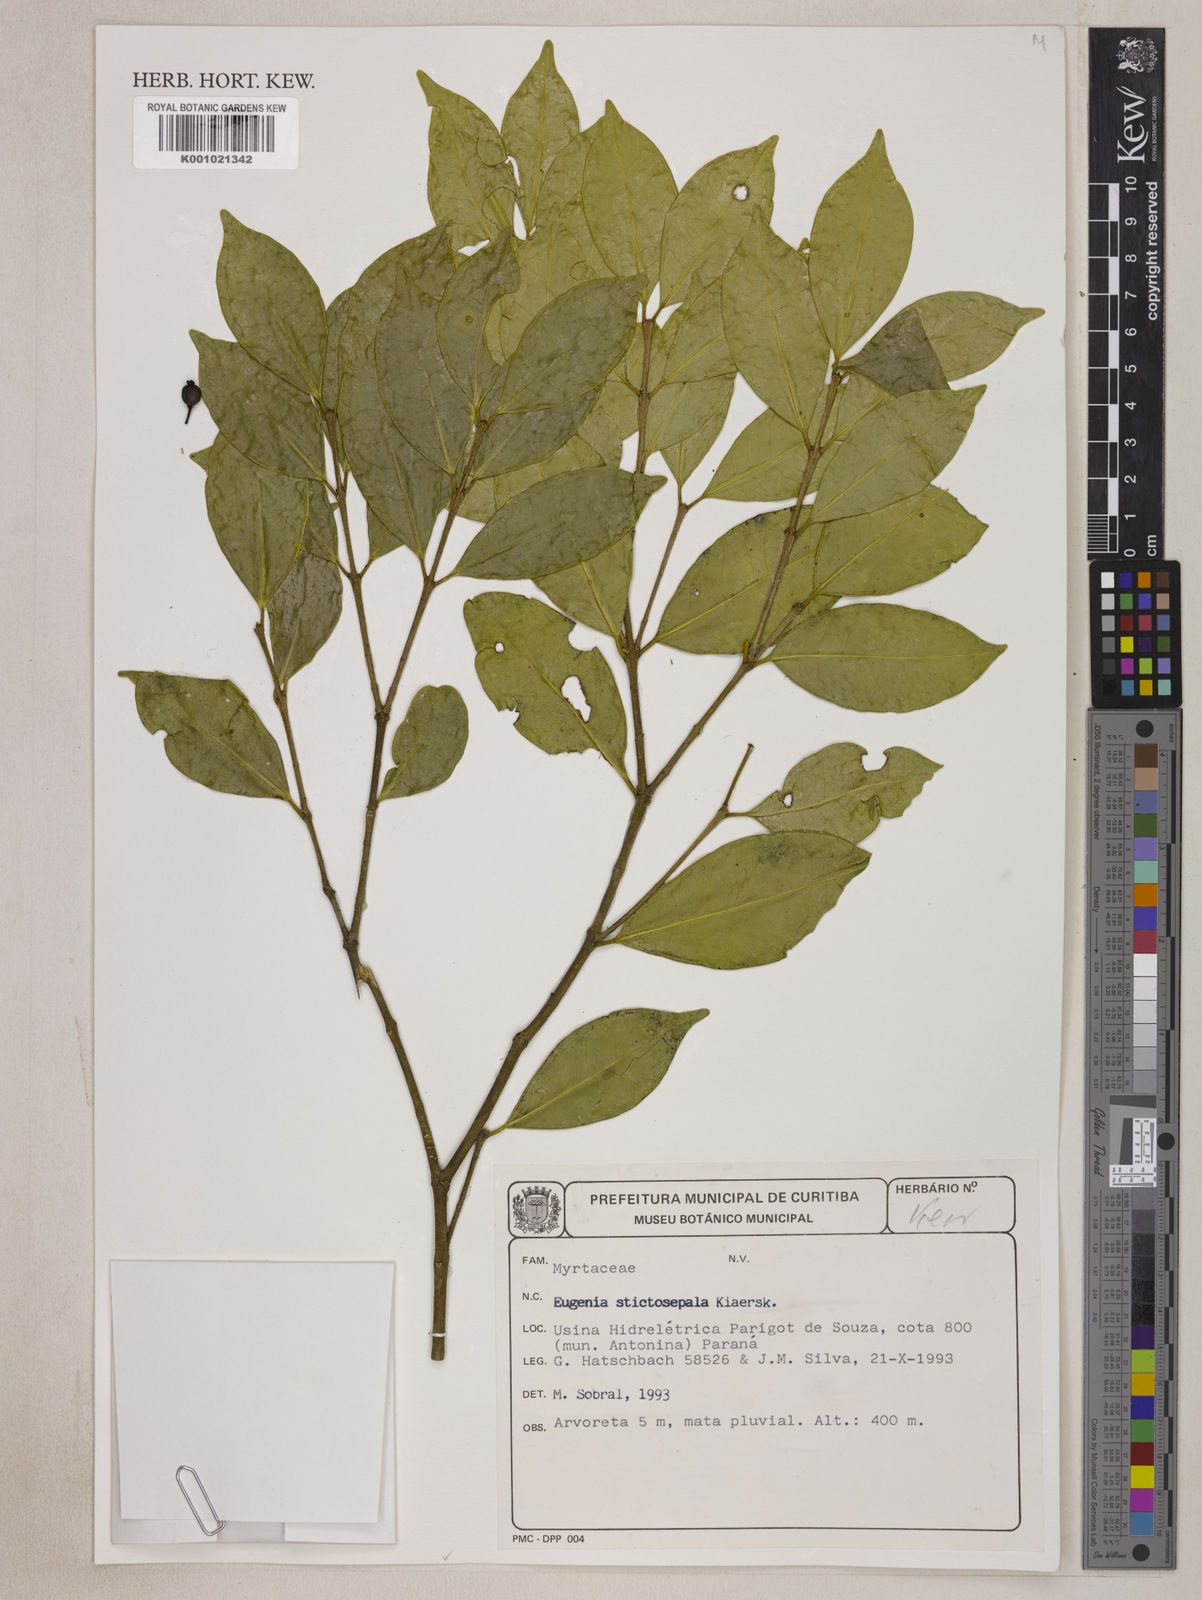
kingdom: Plantae
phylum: Tracheophyta
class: Magnoliopsida
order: Myrtales
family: Myrtaceae
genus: Eugenia
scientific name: Eugenia prasina
